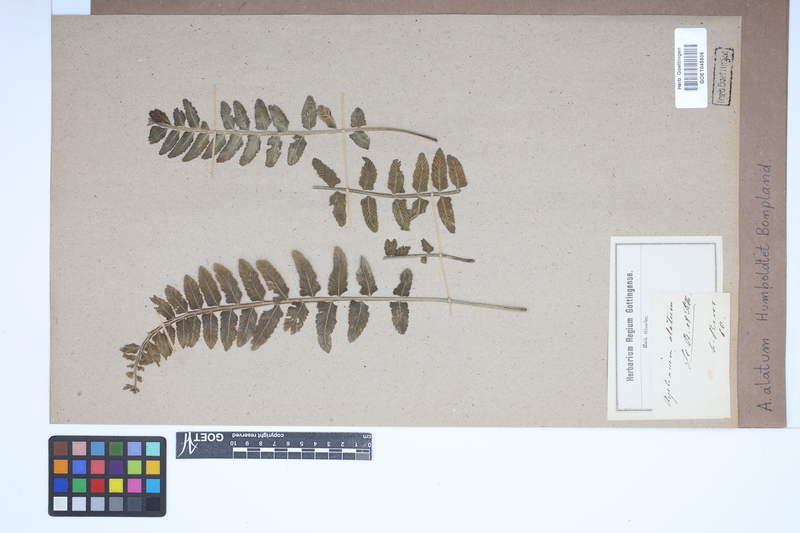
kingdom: Plantae
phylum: Tracheophyta
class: Polypodiopsida
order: Polypodiales
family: Aspleniaceae
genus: Asplenium
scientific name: Asplenium alatum
